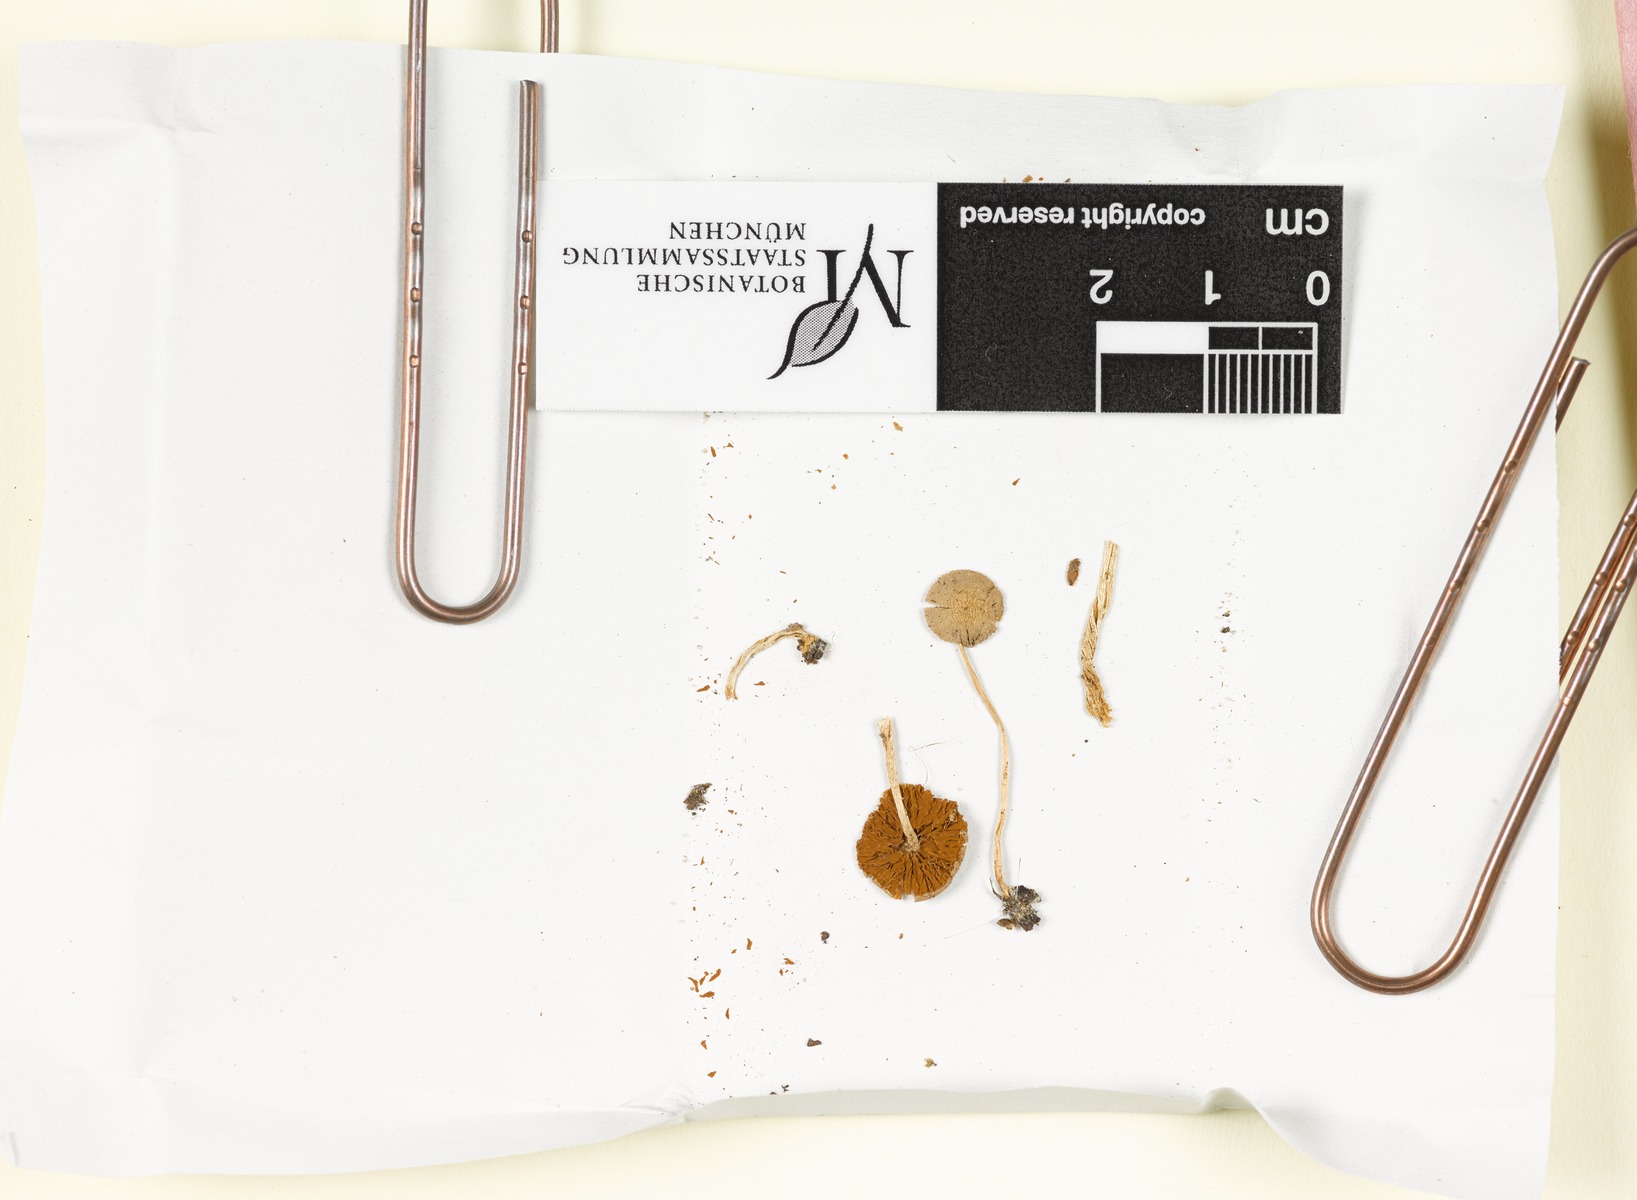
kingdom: Fungi
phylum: Basidiomycota
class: Agaricomycetes
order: Agaricales
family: Bolbitiaceae
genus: Pholiotina
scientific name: Pholiotina dasypus
